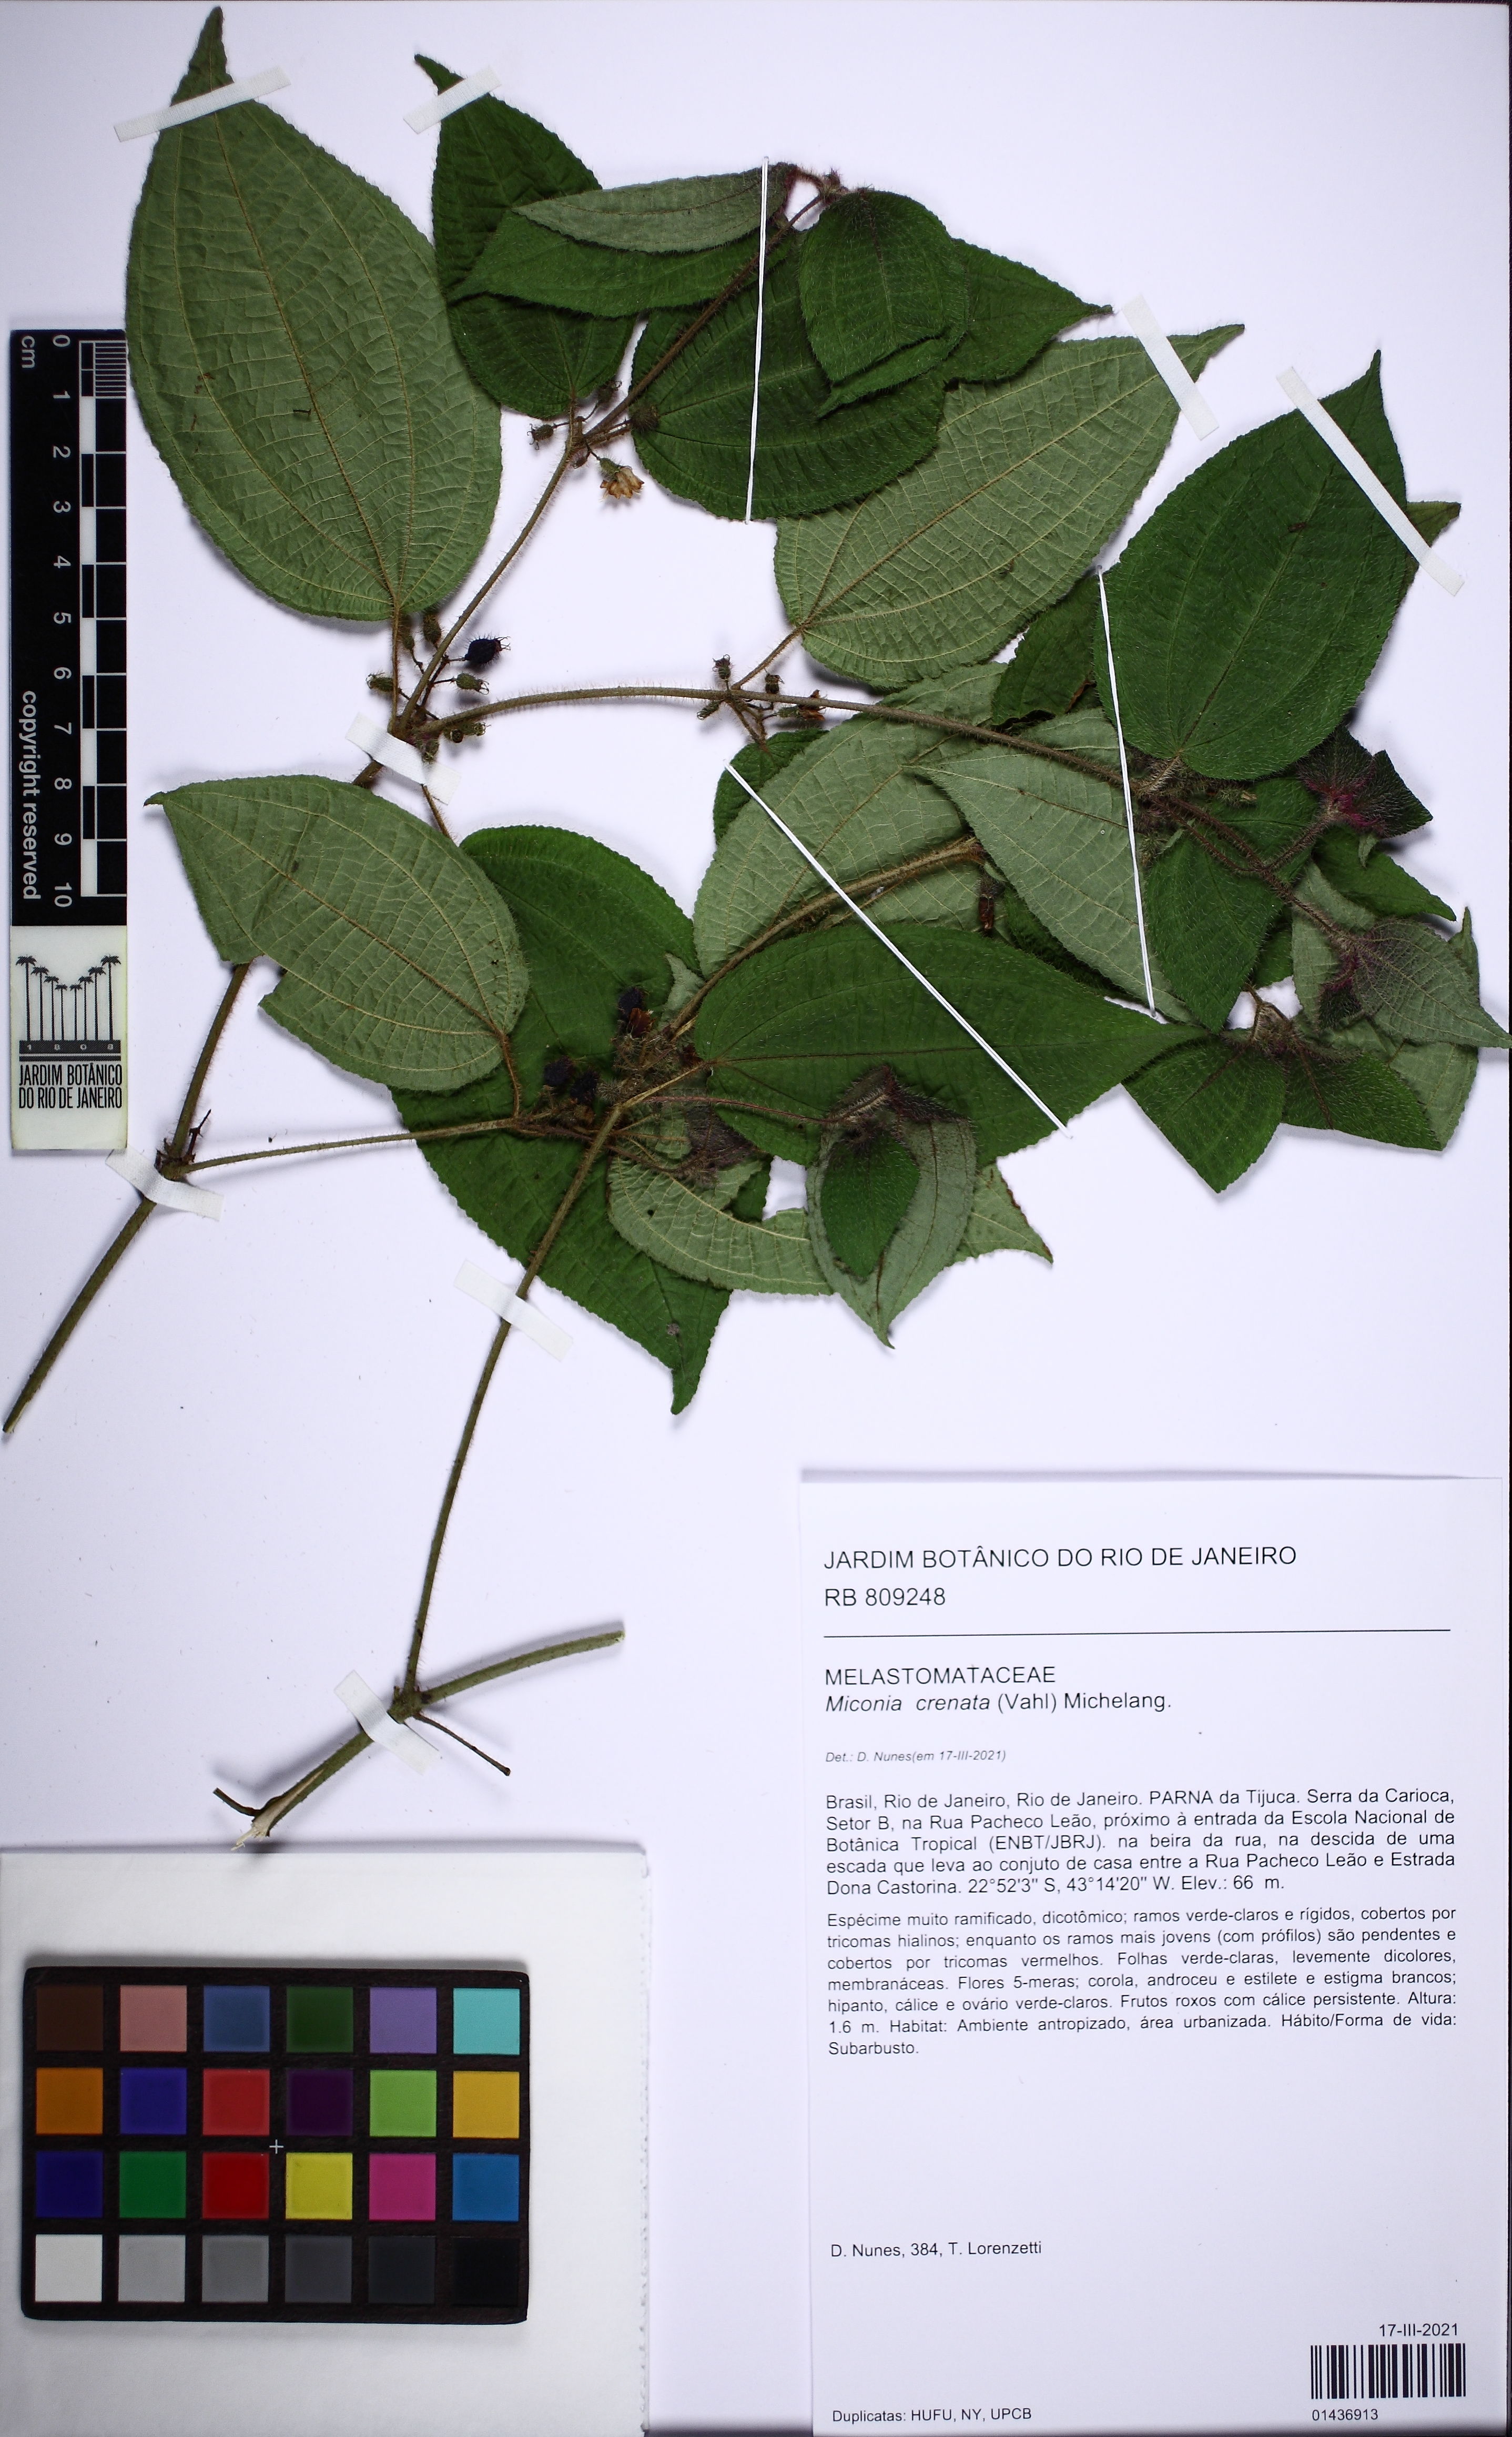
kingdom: Plantae
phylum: Tracheophyta
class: Magnoliopsida
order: Myrtales
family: Melastomataceae
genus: Miconia
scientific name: Miconia crenata
